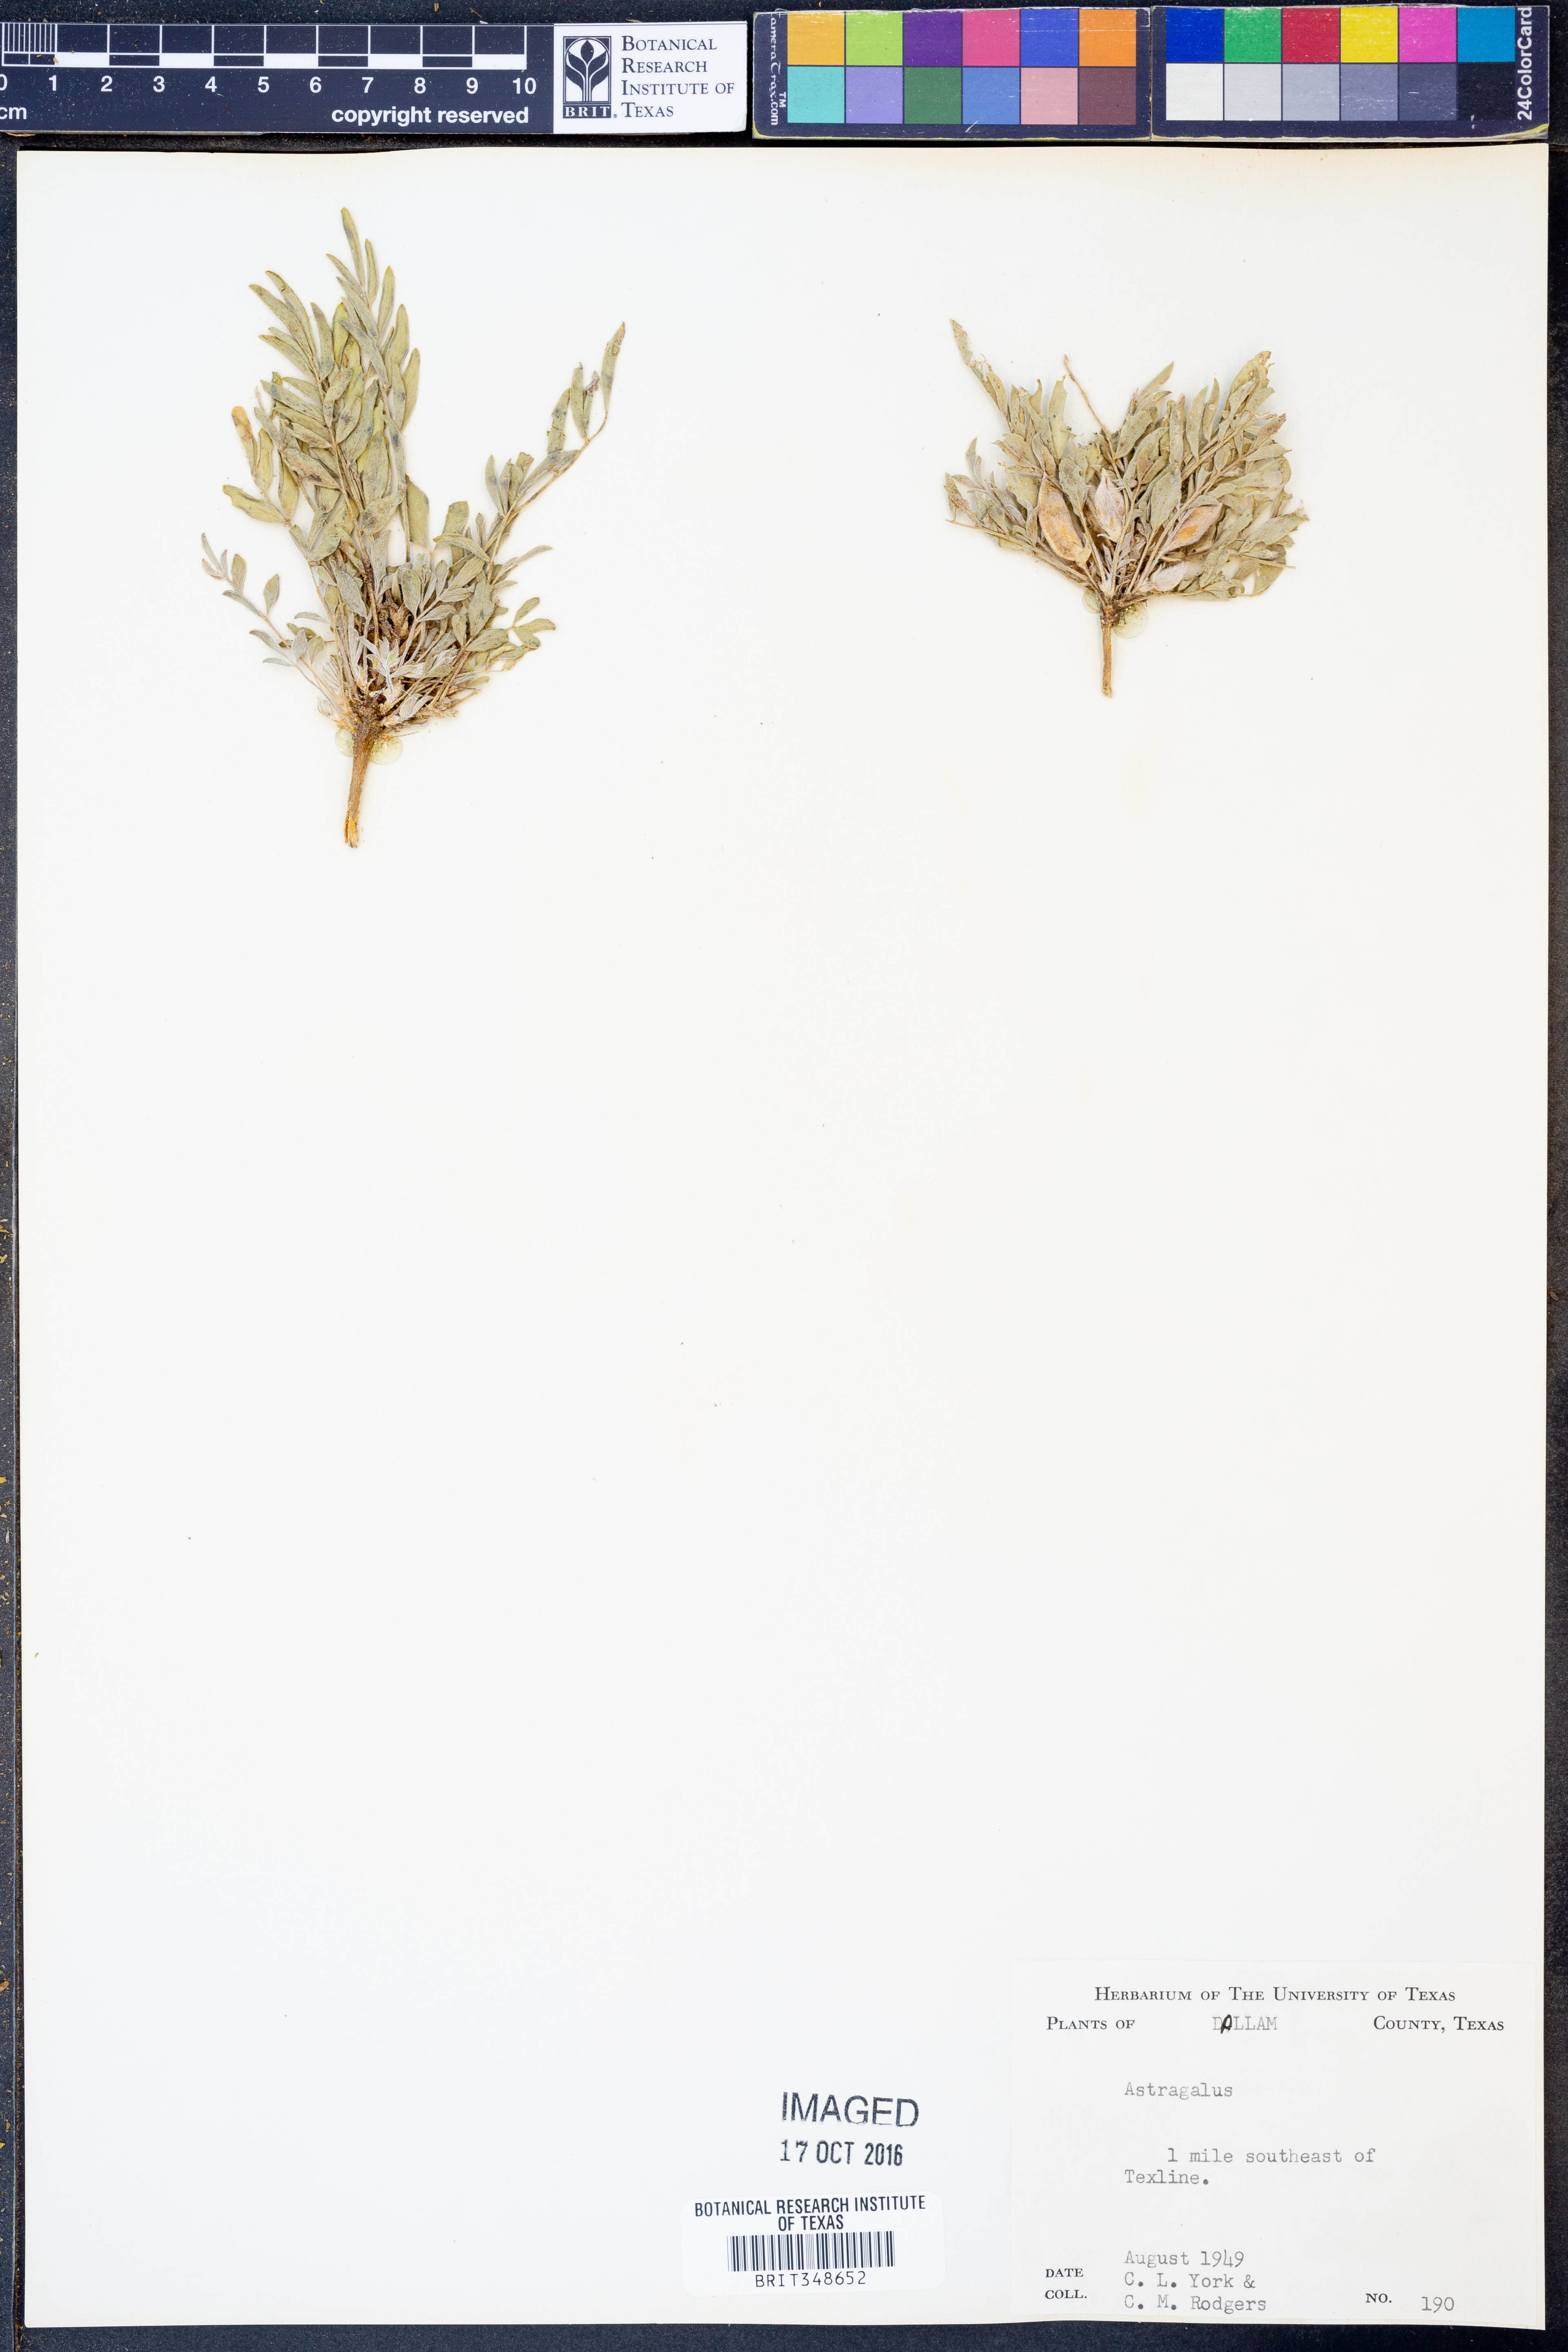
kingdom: Plantae
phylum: Tracheophyta
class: Magnoliopsida
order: Fabales
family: Fabaceae
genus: Astragalus
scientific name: Astragalus
